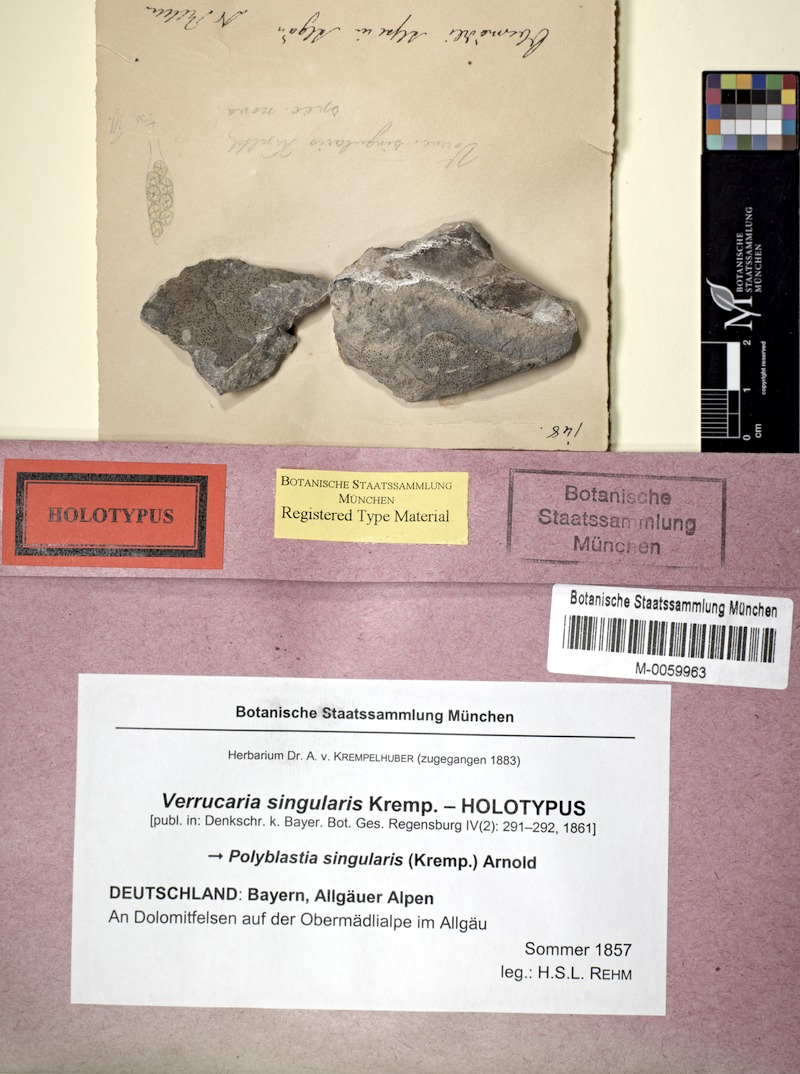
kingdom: Fungi
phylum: Ascomycota
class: Eurotiomycetes
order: Verrucariales
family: Verrucariaceae
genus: Polyblastia
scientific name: Polyblastia singularis
